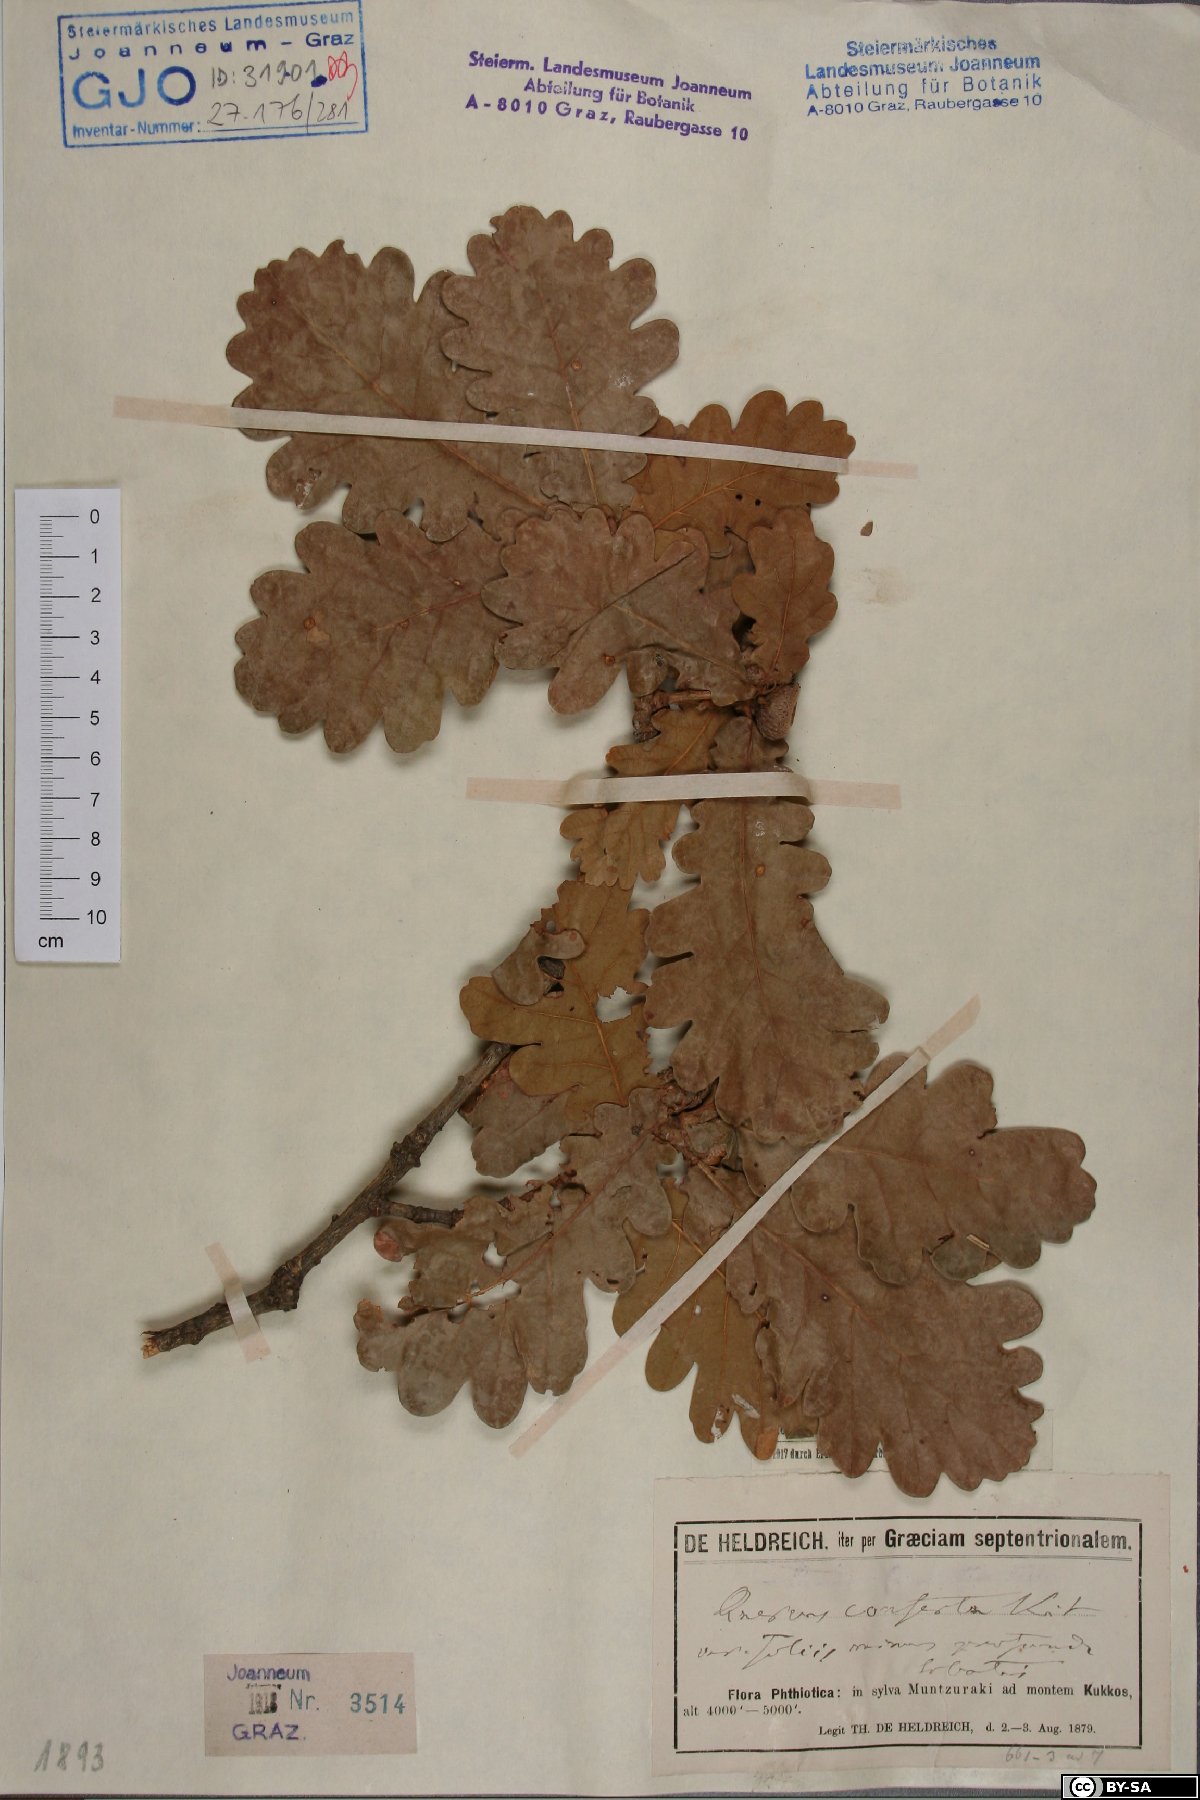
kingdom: Plantae
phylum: Tracheophyta
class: Magnoliopsida
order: Fagales
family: Fagaceae
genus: Quercus
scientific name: Quercus conferta
